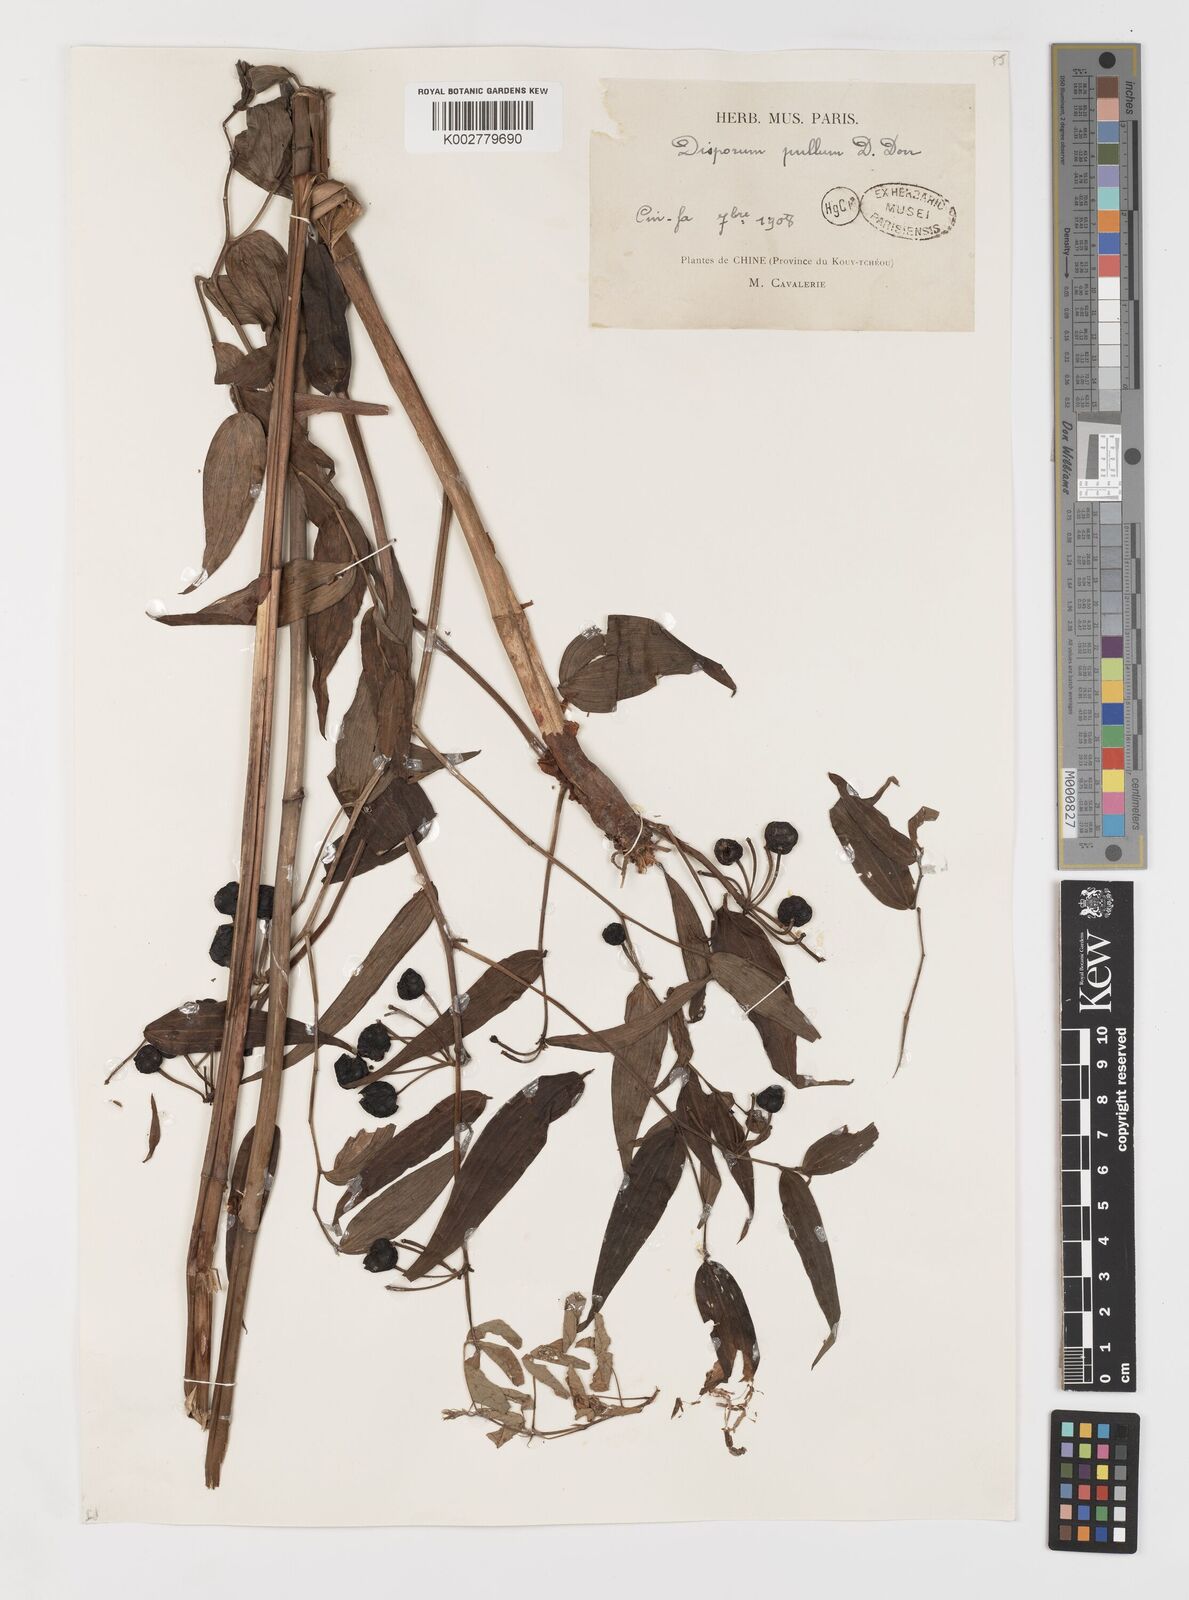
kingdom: Plantae
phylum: Tracheophyta
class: Liliopsida
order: Liliales
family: Colchicaceae
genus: Disporum
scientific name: Disporum cantoniense
